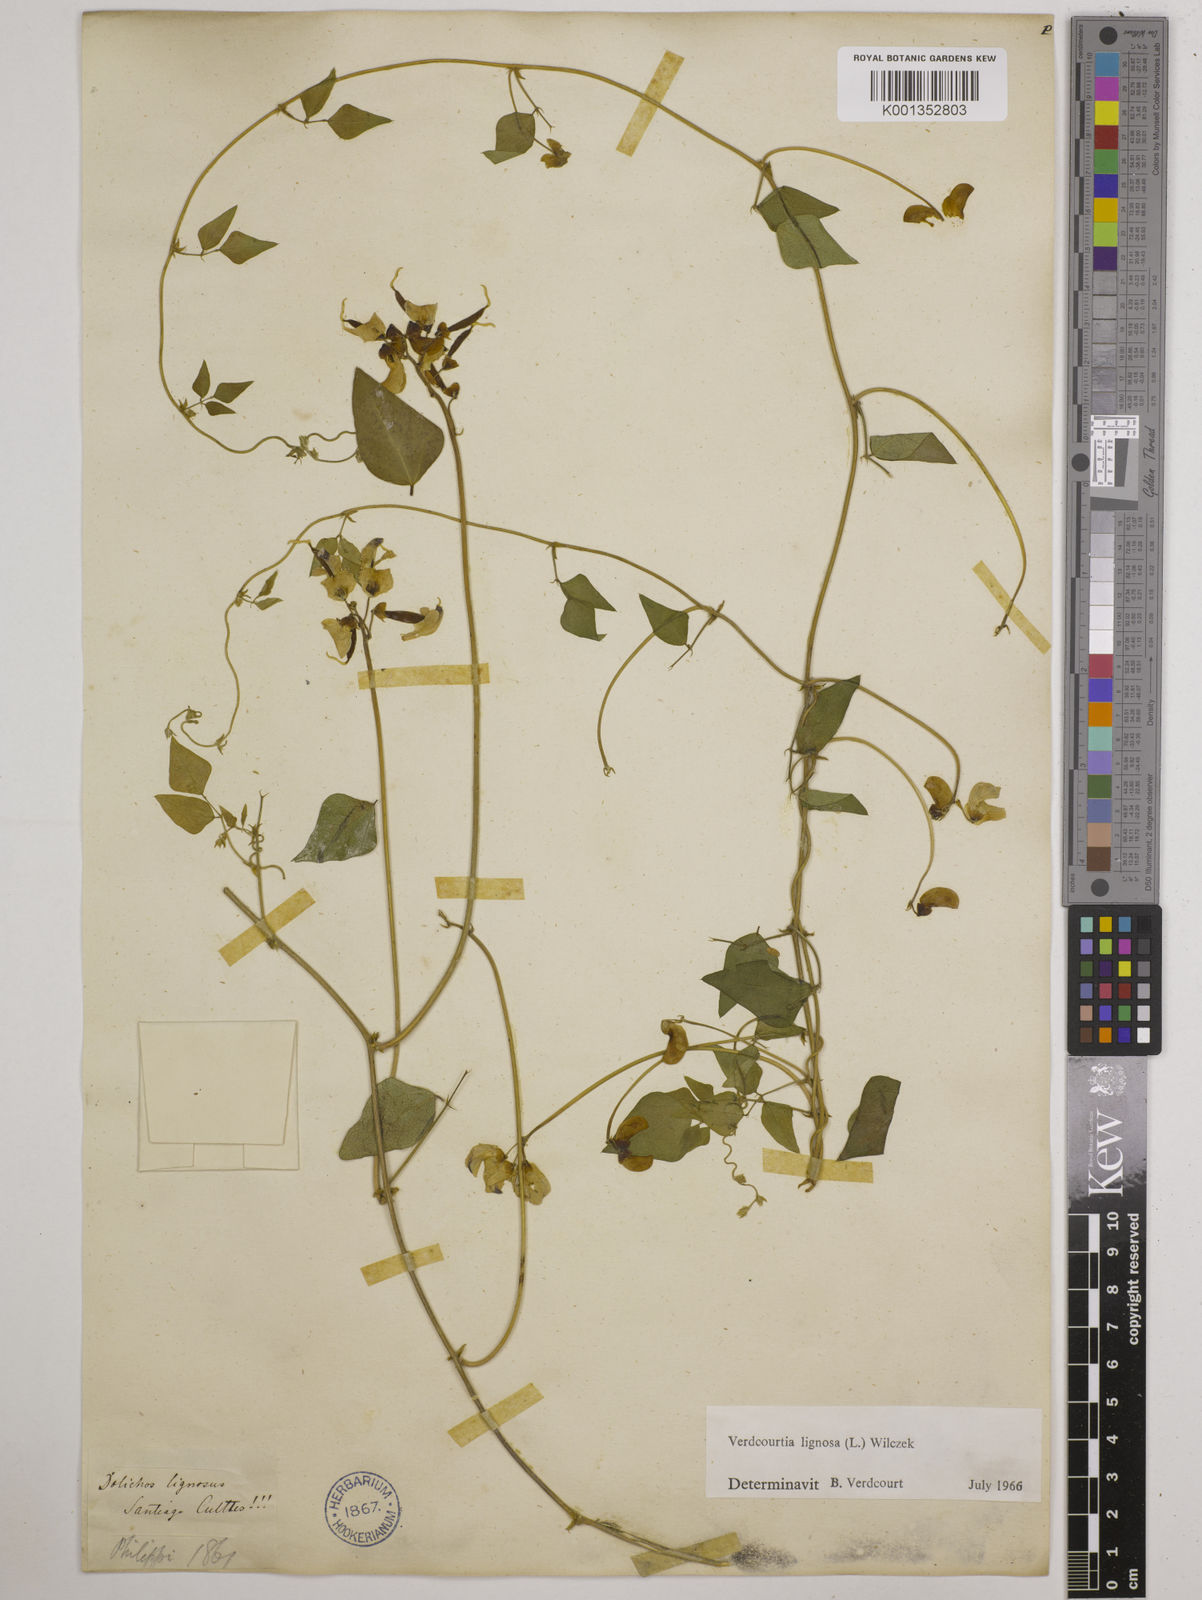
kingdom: Plantae
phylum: Tracheophyta
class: Magnoliopsida
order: Fabales
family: Fabaceae
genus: Dipogon
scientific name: Dipogon lignosus
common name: Okie bean
